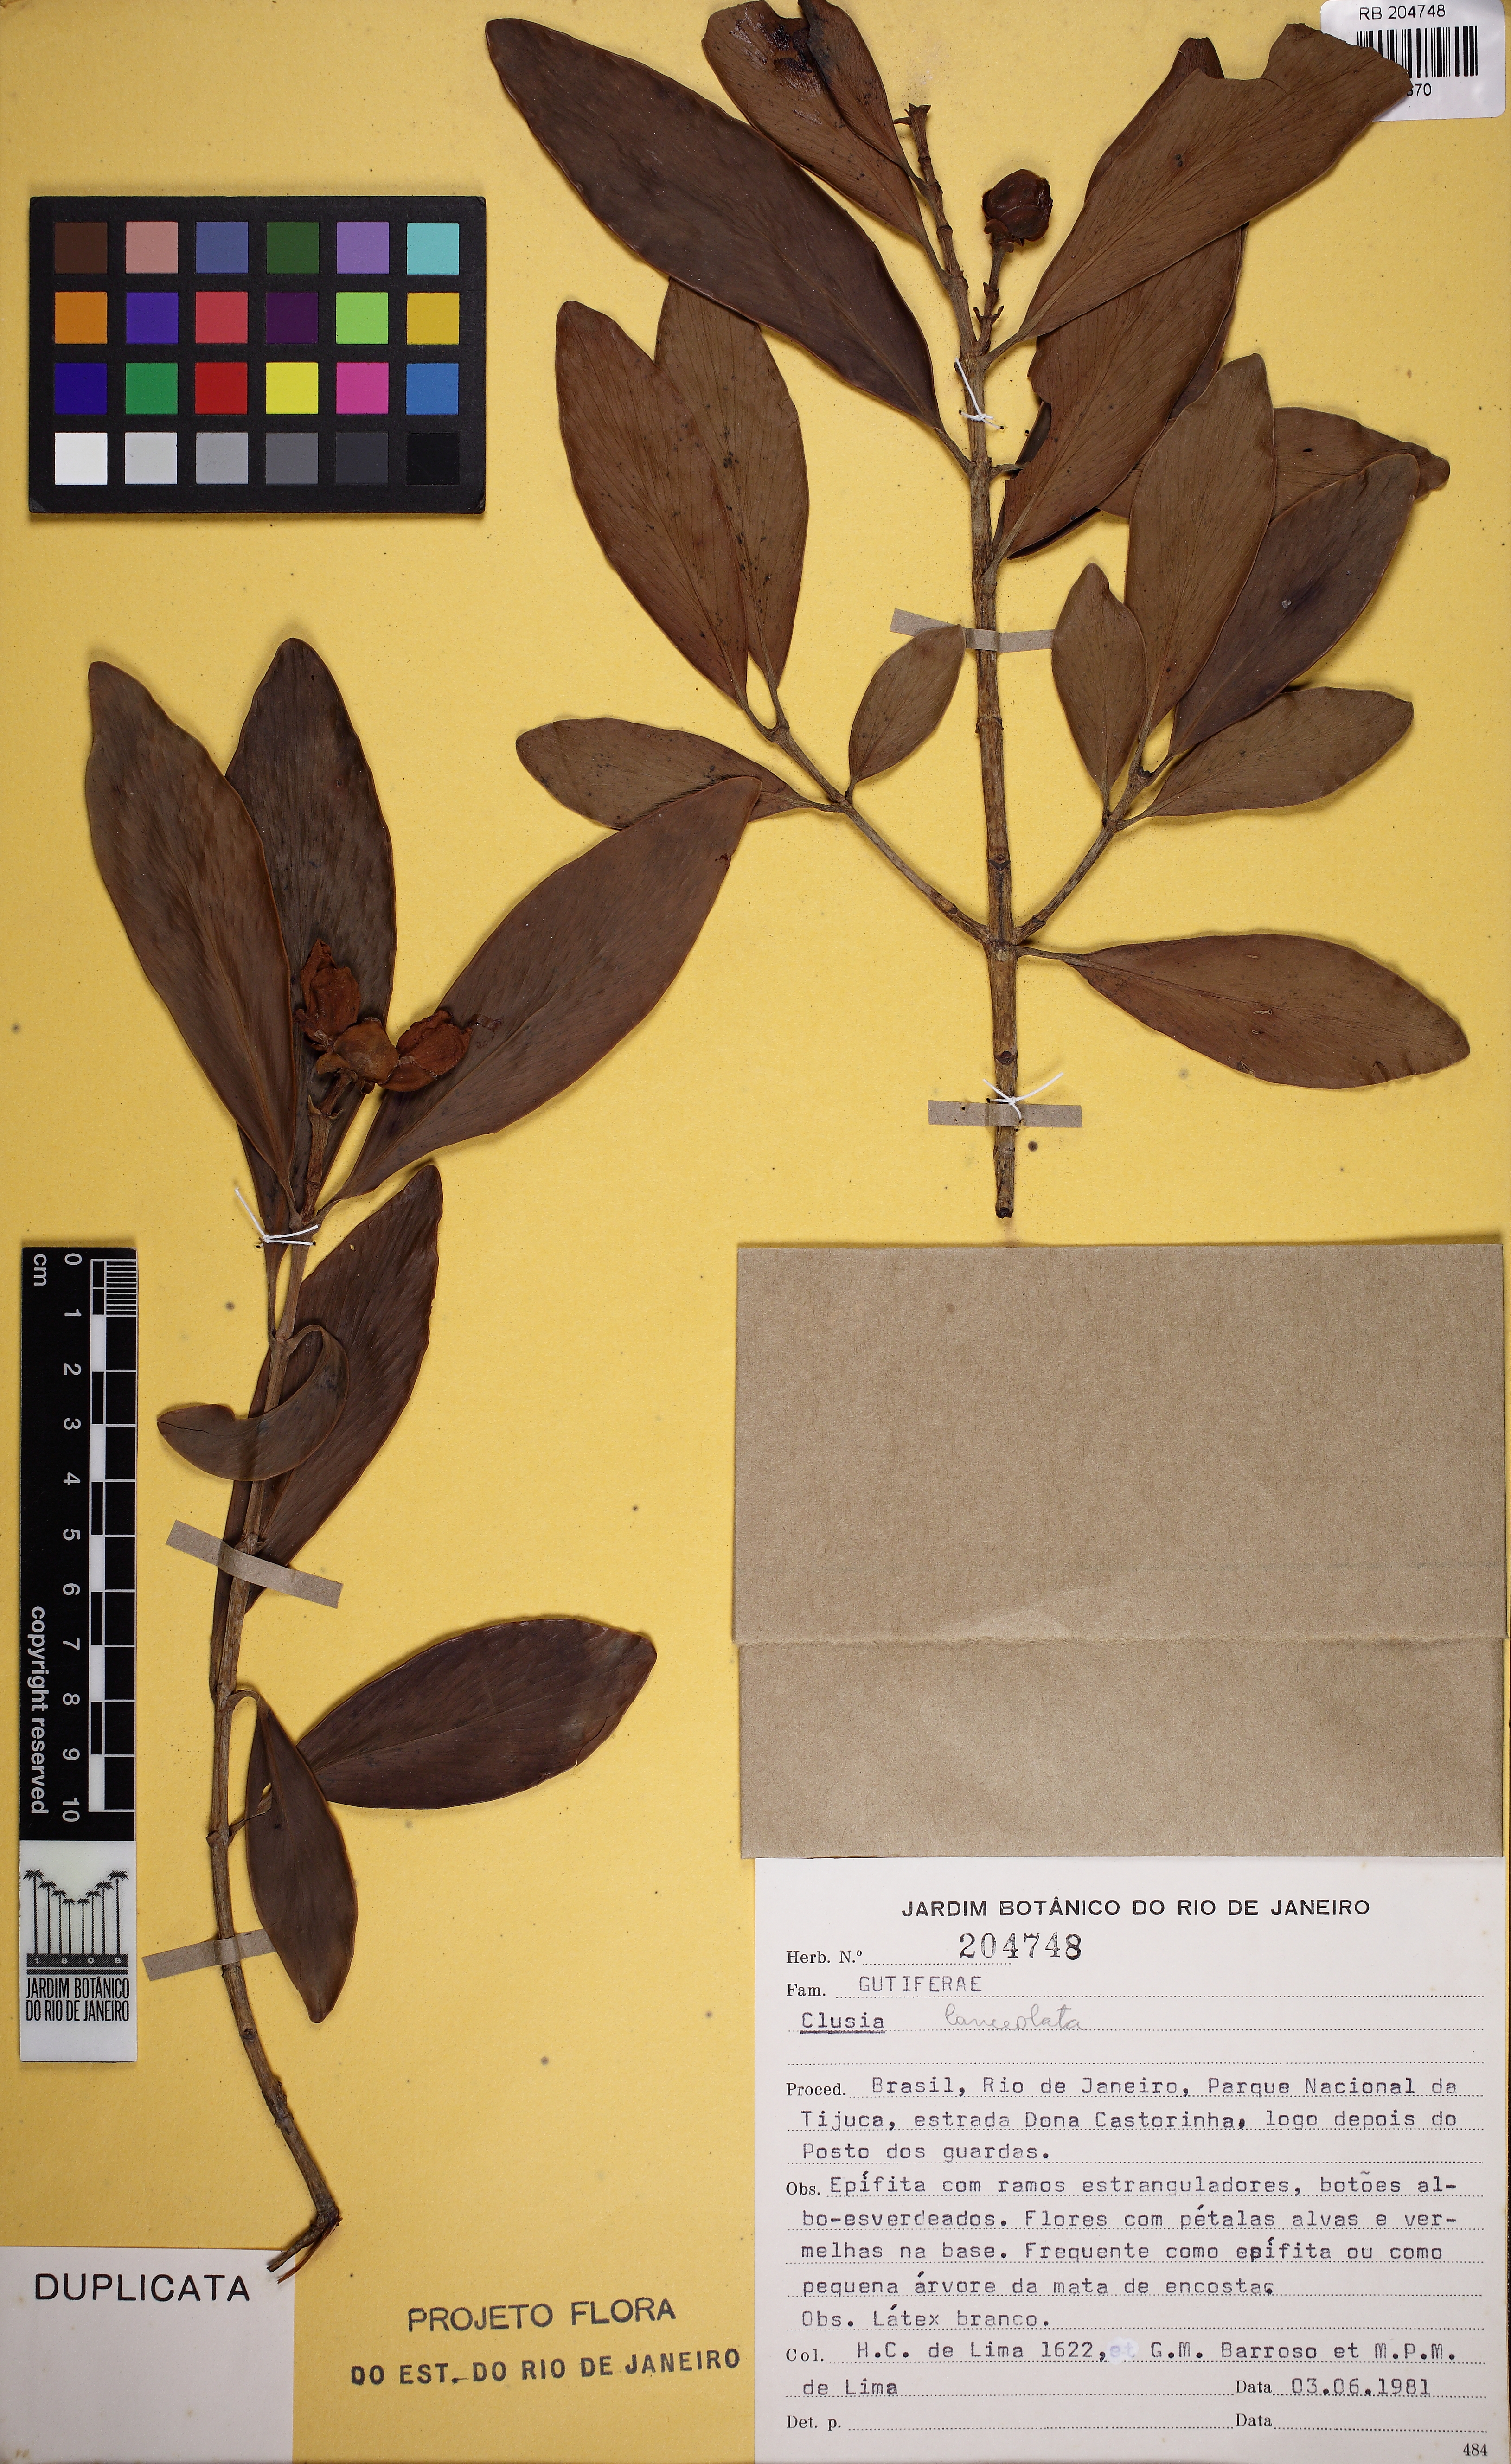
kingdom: Plantae
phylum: Tracheophyta
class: Magnoliopsida
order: Malpighiales
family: Clusiaceae
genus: Clusia
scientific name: Clusia lanceolata
